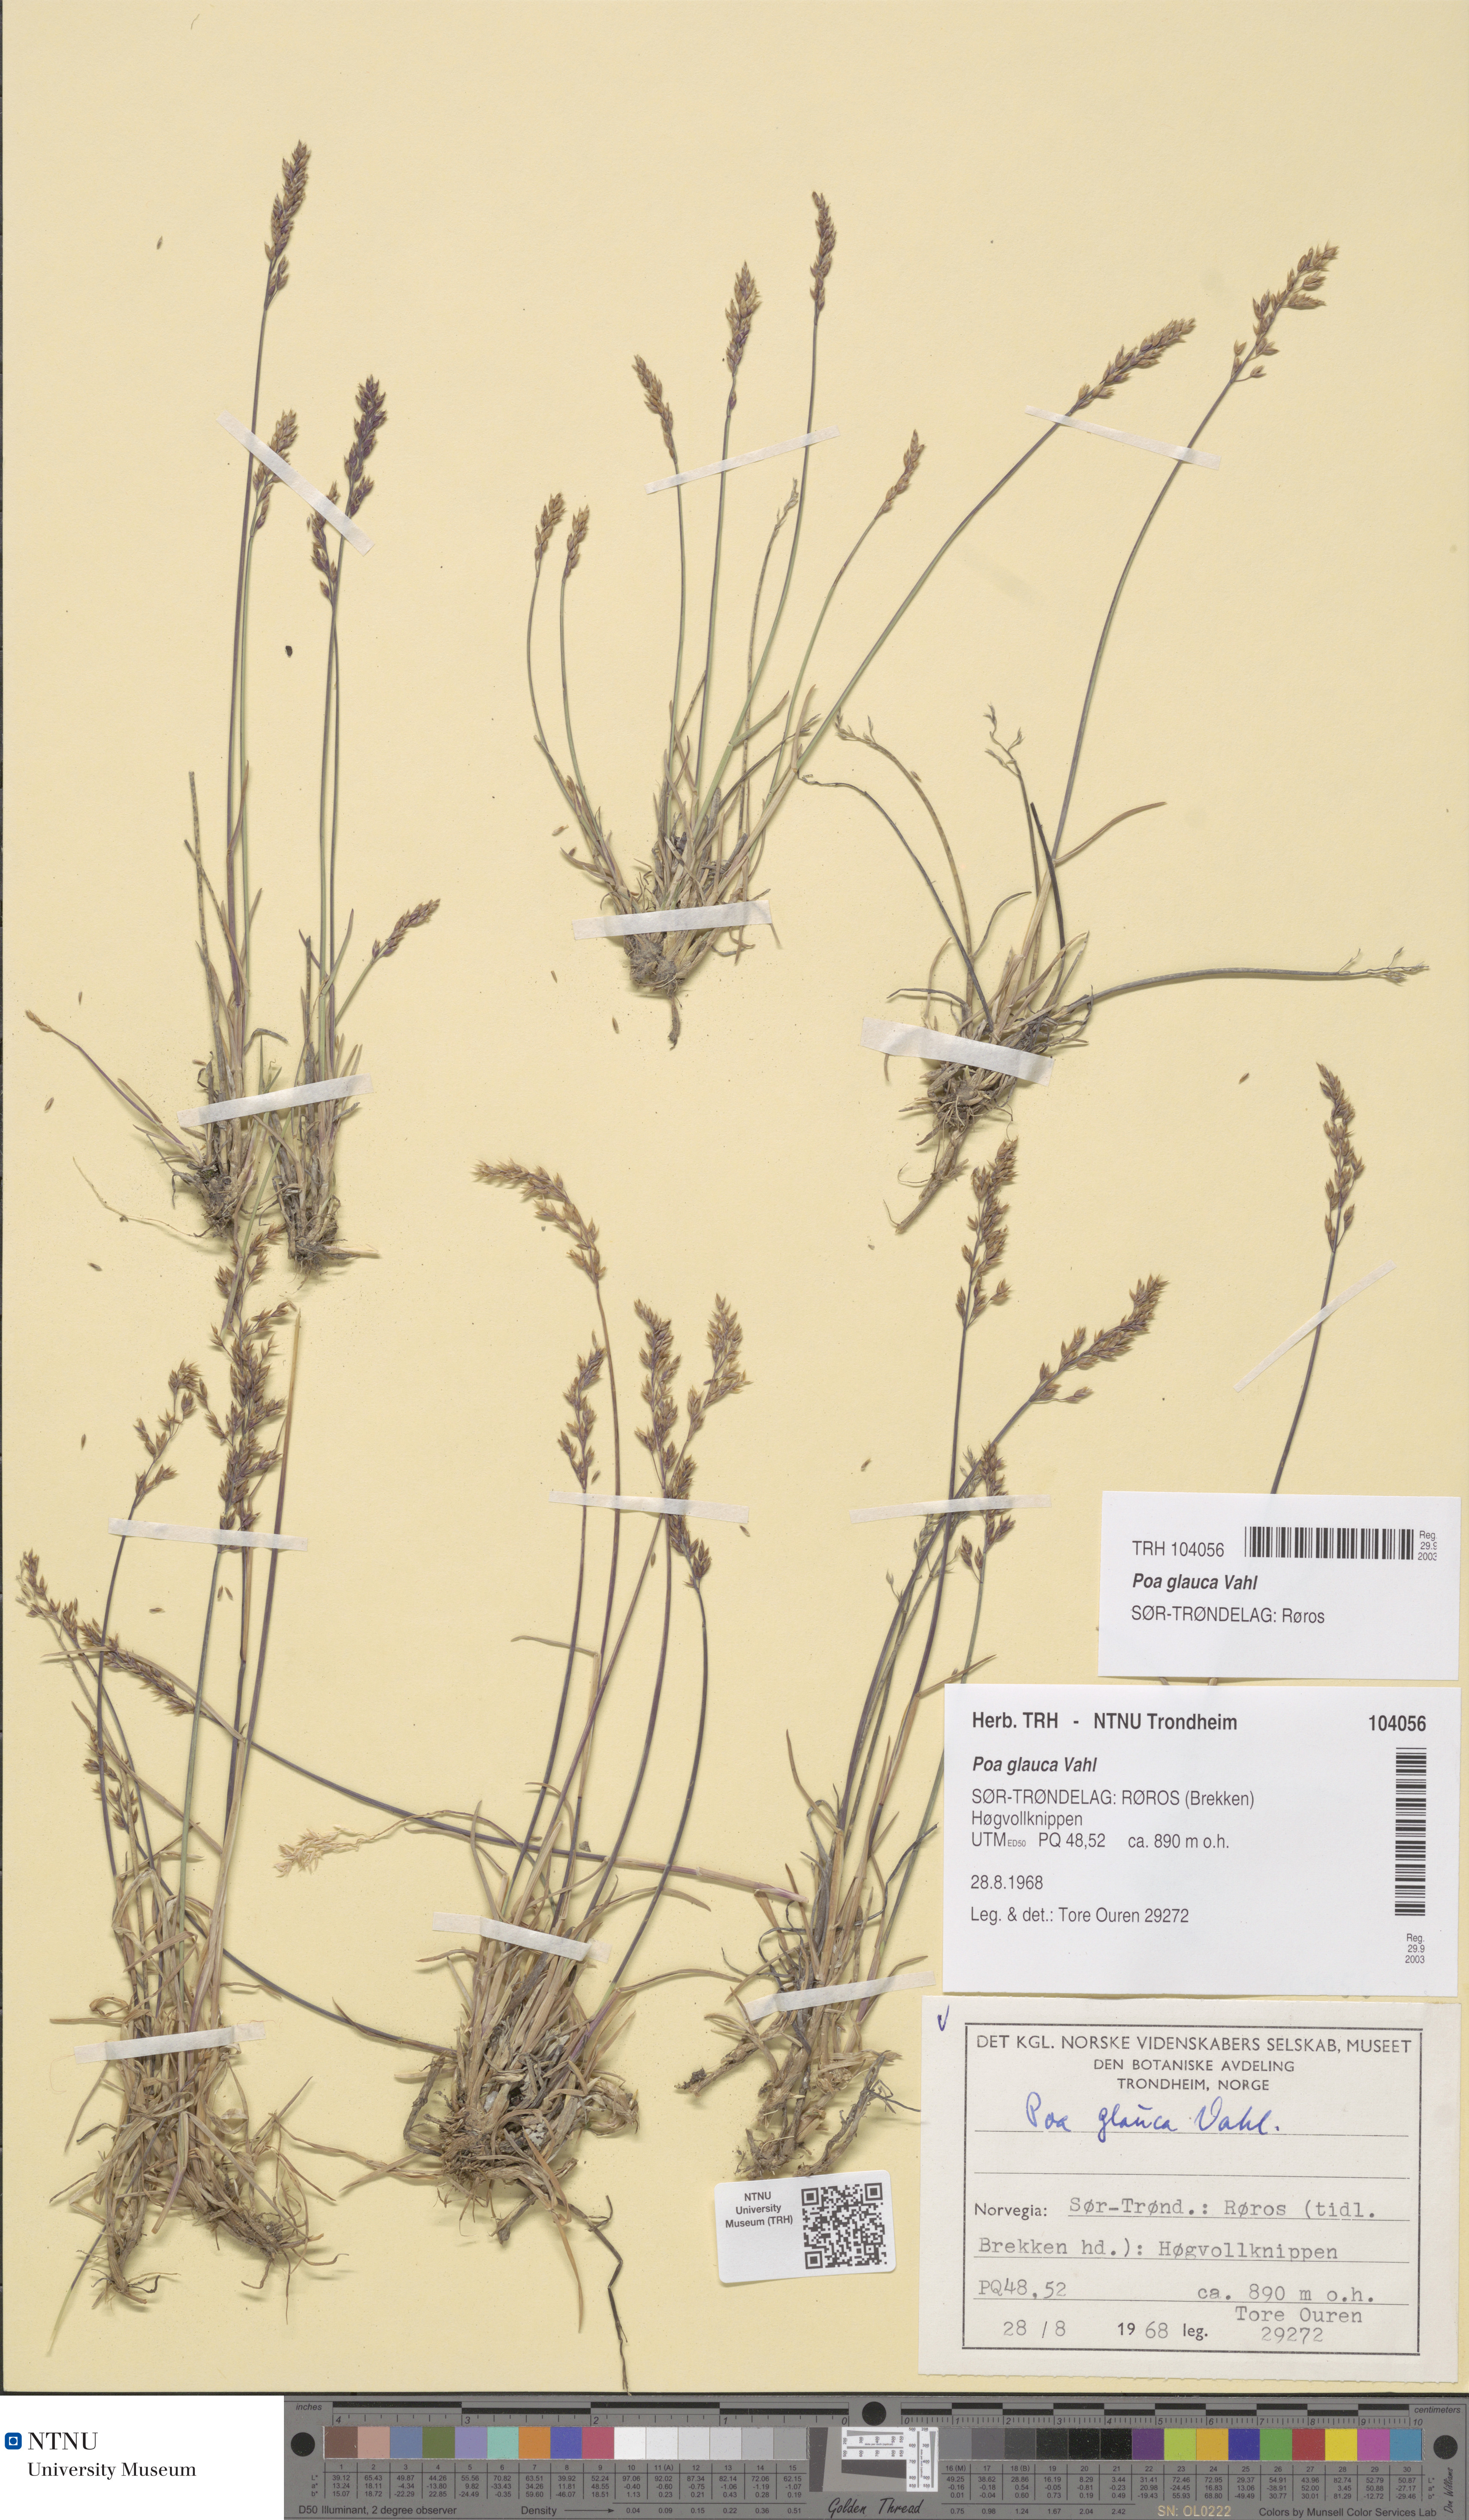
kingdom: Plantae
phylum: Tracheophyta
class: Liliopsida
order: Poales
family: Poaceae
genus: Poa
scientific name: Poa glauca
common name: Glaucous bluegrass
